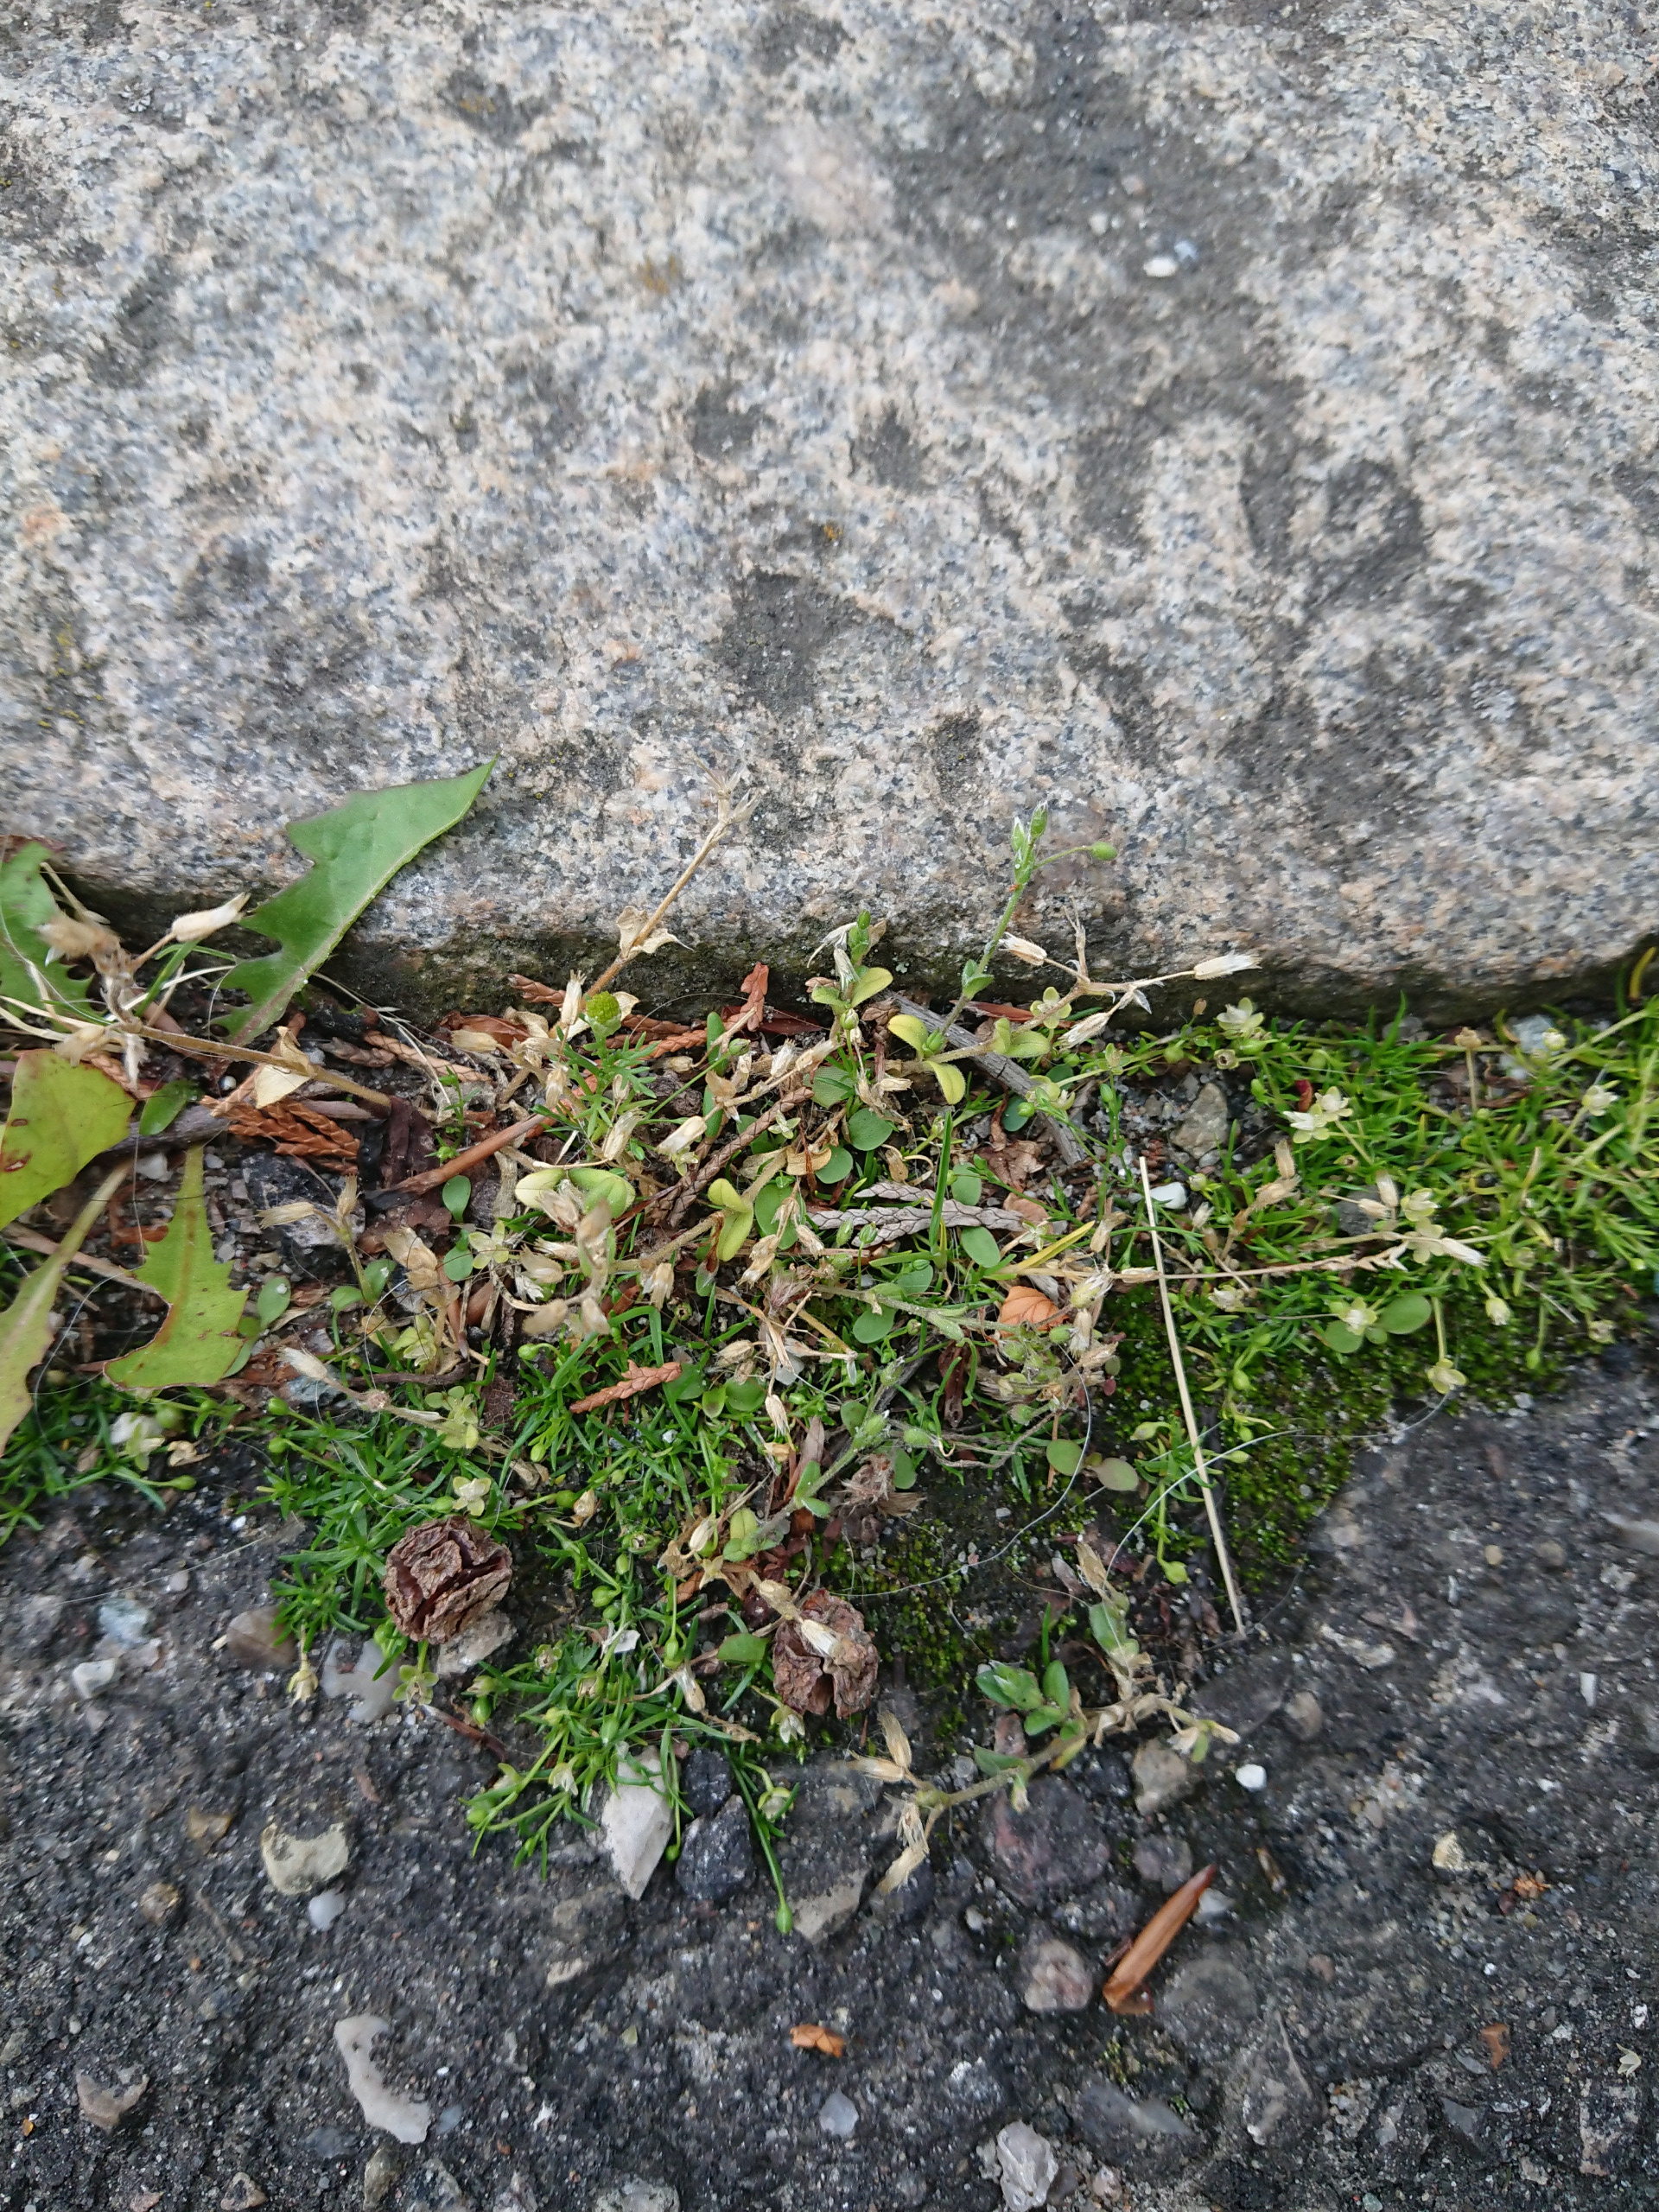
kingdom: Plantae
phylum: Tracheophyta
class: Magnoliopsida
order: Caryophyllales
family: Caryophyllaceae
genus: Cerastium
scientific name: Cerastium semidecandrum
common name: Femhannet hønsetarm
